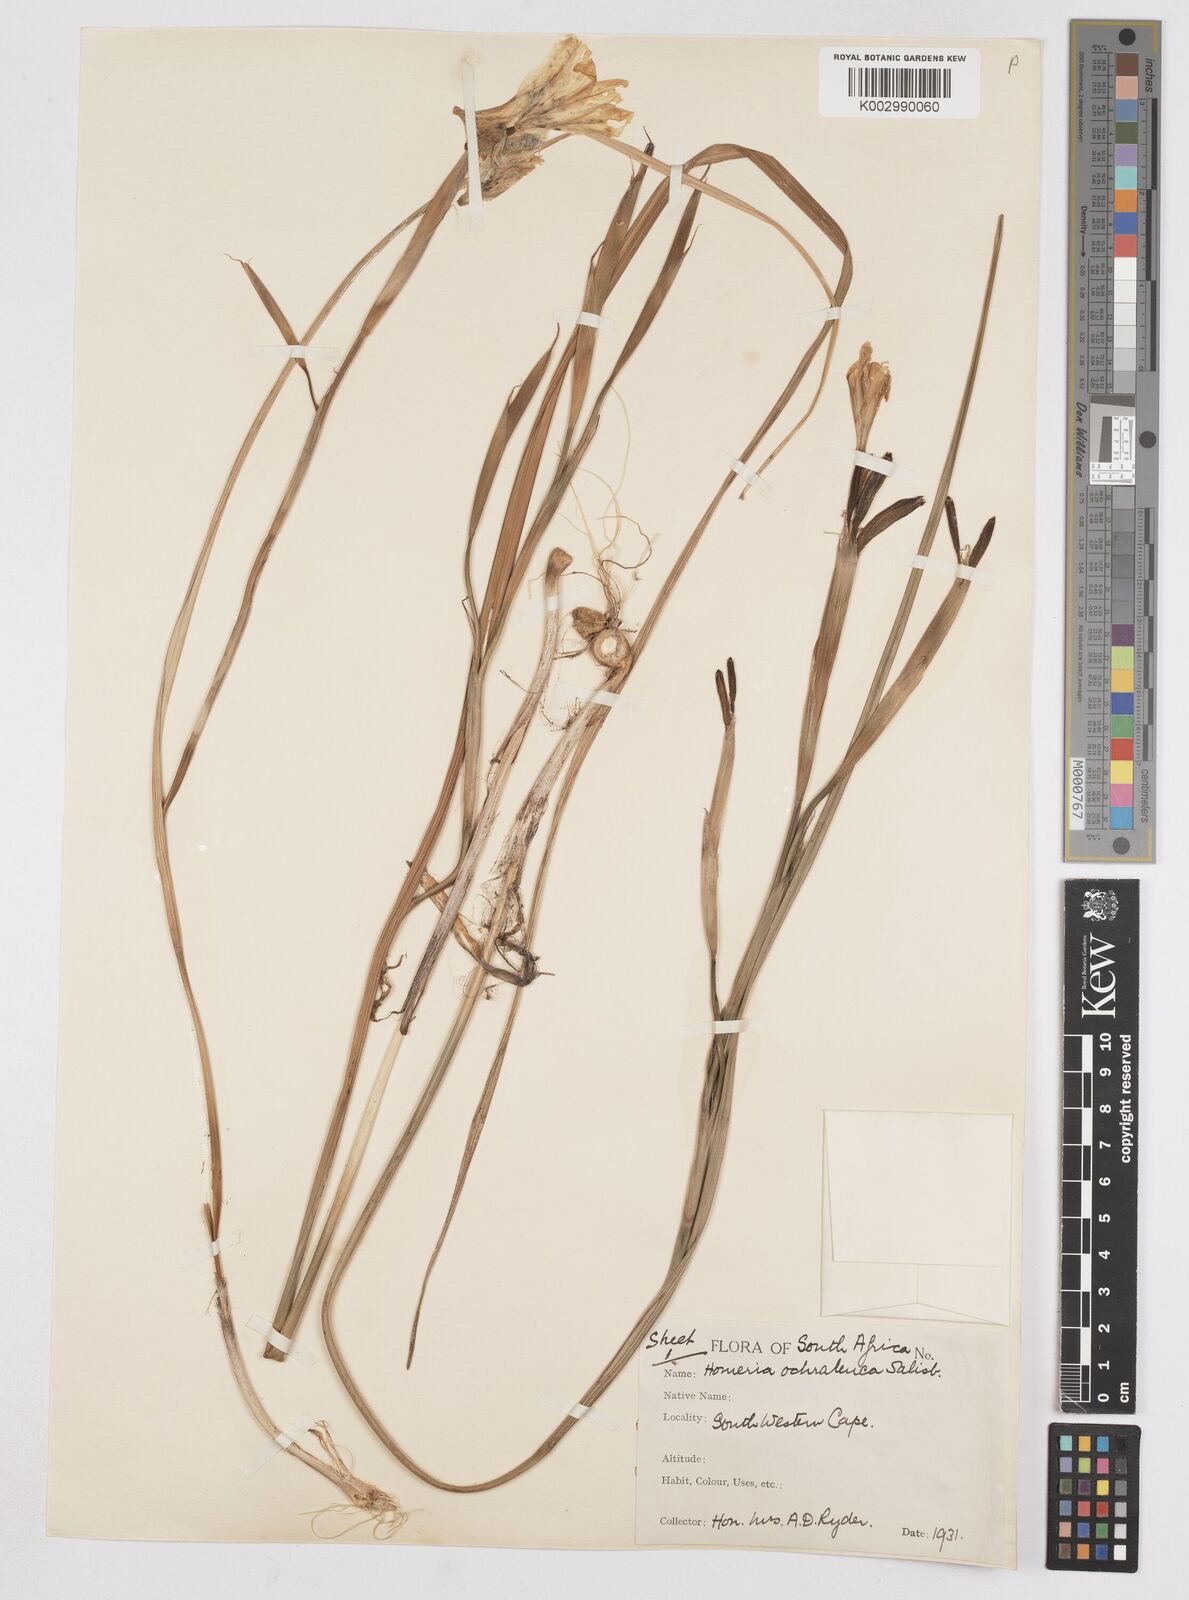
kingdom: Plantae
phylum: Tracheophyta
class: Liliopsida
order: Asparagales
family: Iridaceae
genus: Moraea
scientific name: Moraea ochroleuca
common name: Red tulp
